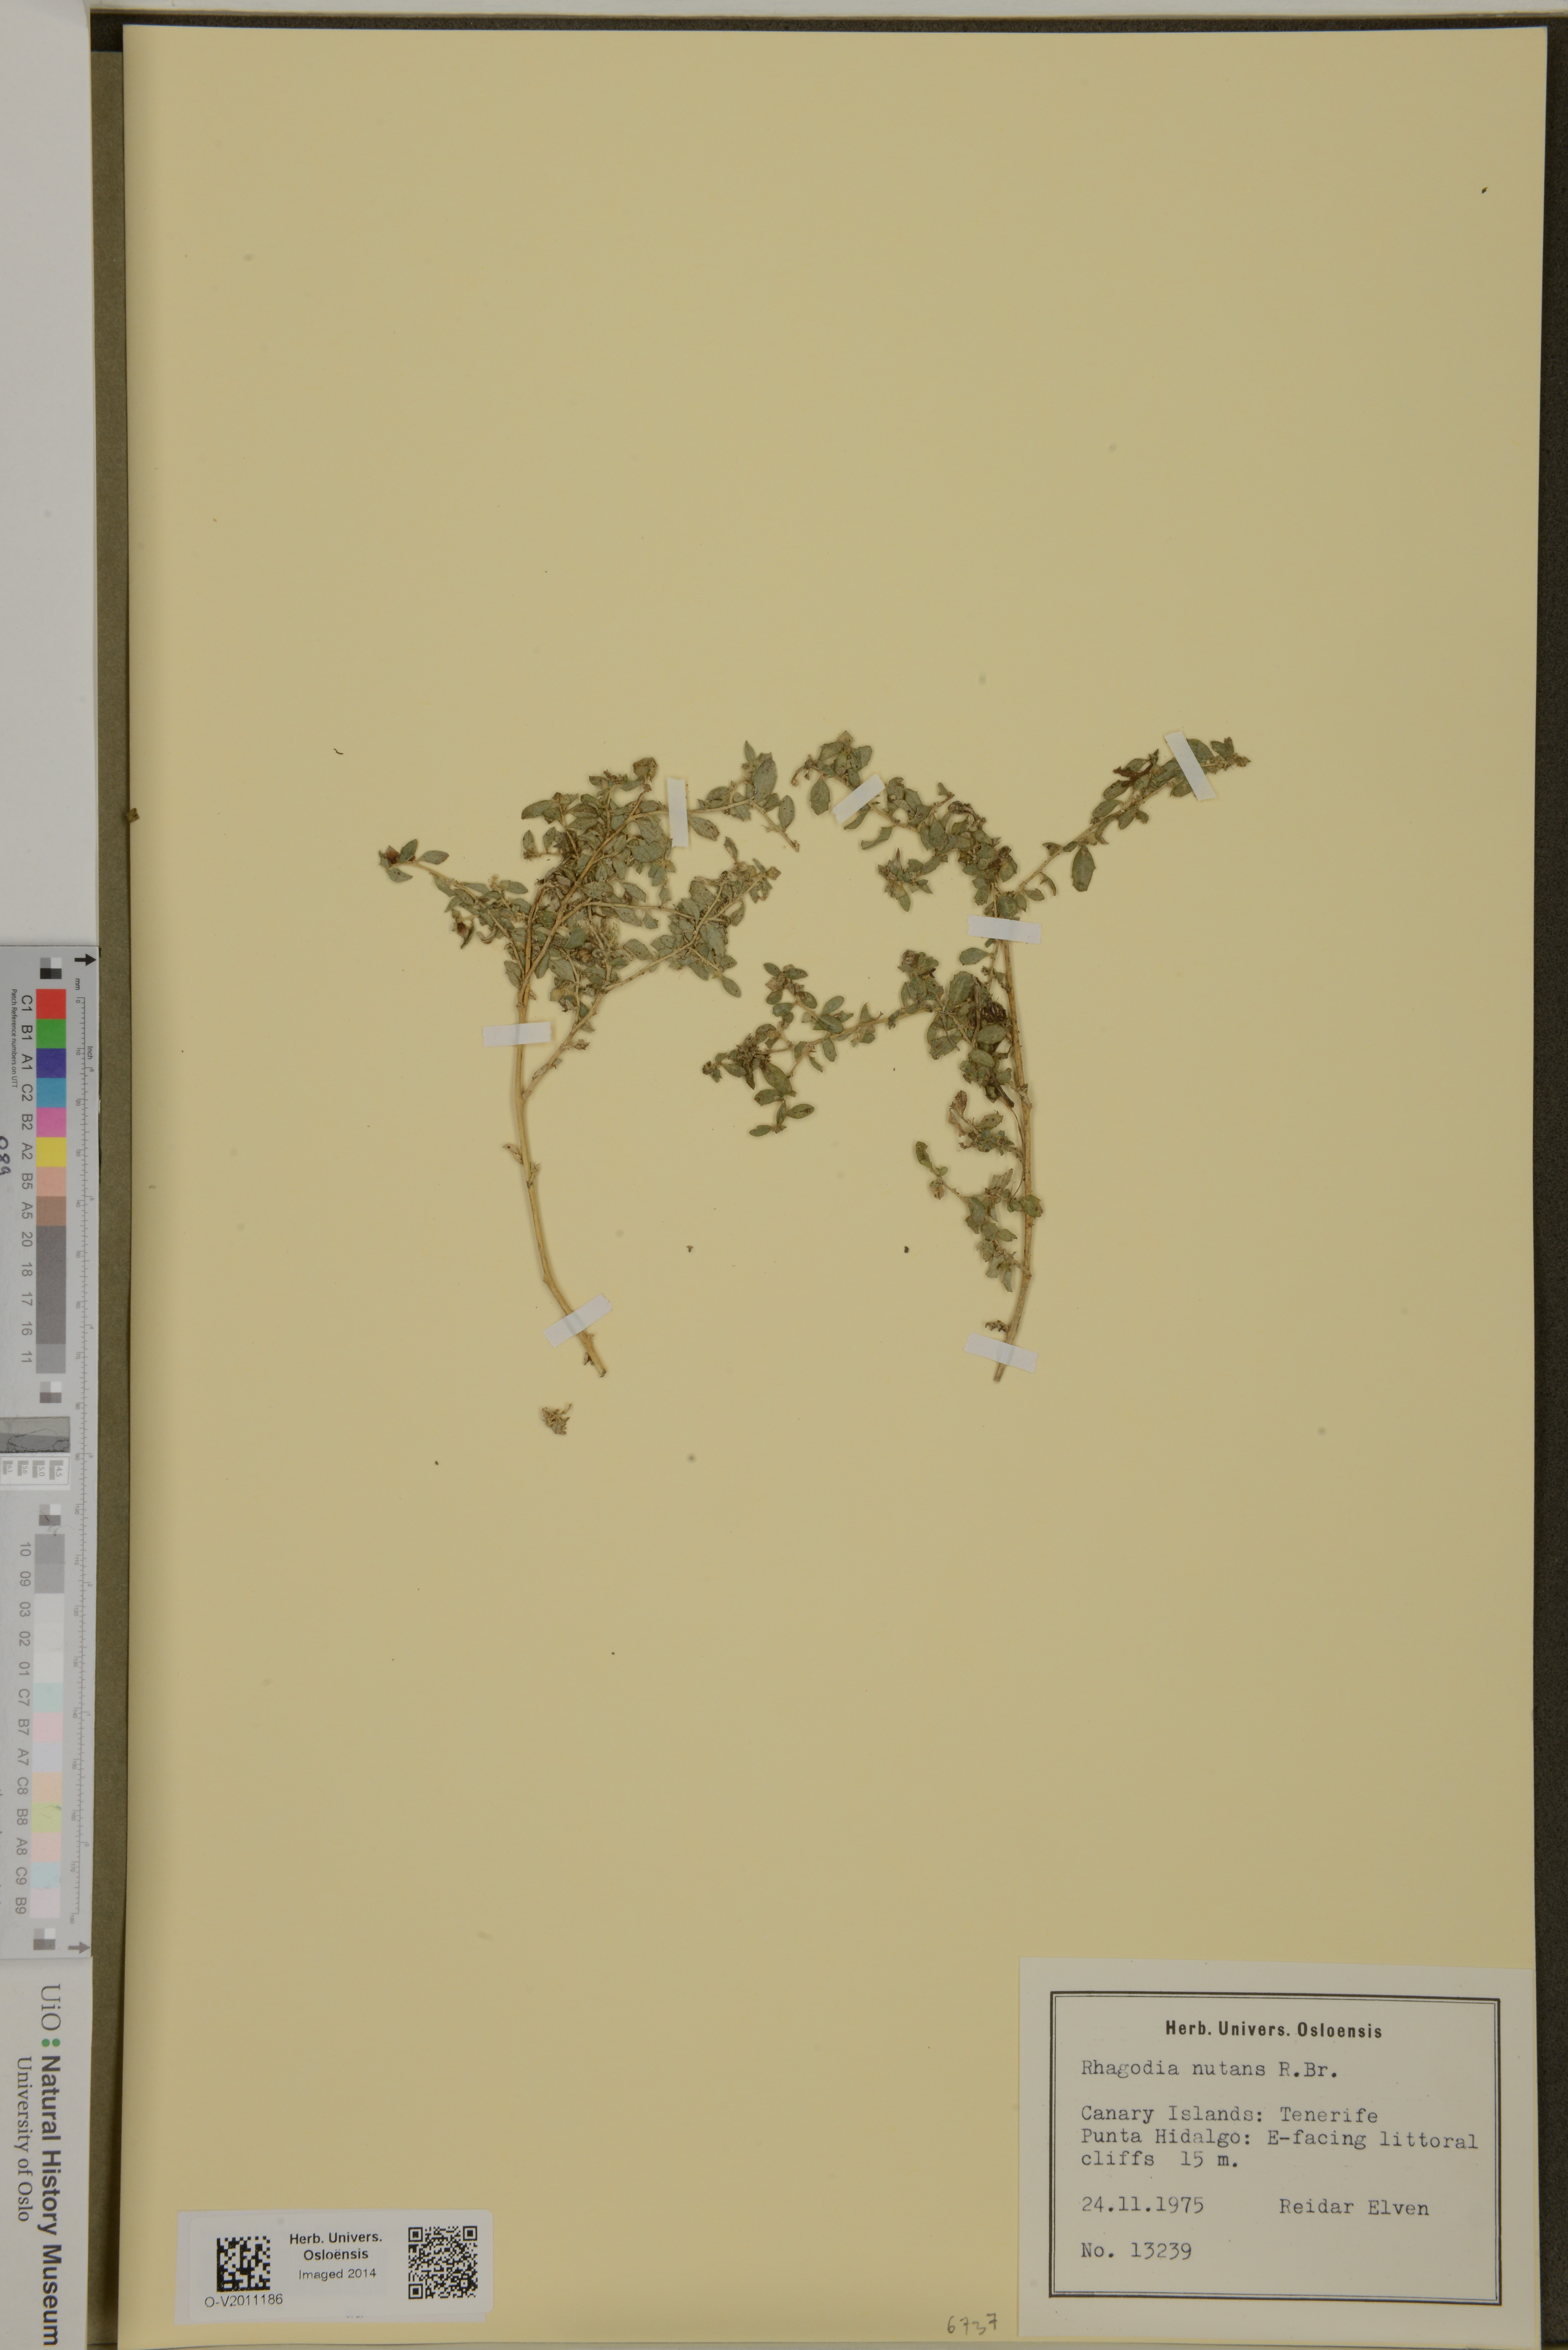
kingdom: Plantae
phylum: Tracheophyta
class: Magnoliopsida
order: Caryophyllales
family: Amaranthaceae
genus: Chenopodium
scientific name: Chenopodium nutans
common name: Climbing-saltbush
